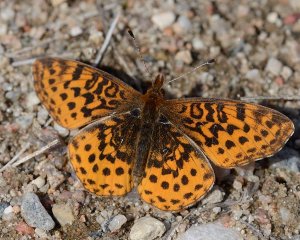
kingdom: Animalia
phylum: Arthropoda
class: Insecta
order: Lepidoptera
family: Nymphalidae
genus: Clossiana
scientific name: Clossiana toddi
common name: Meadow Fritillary
